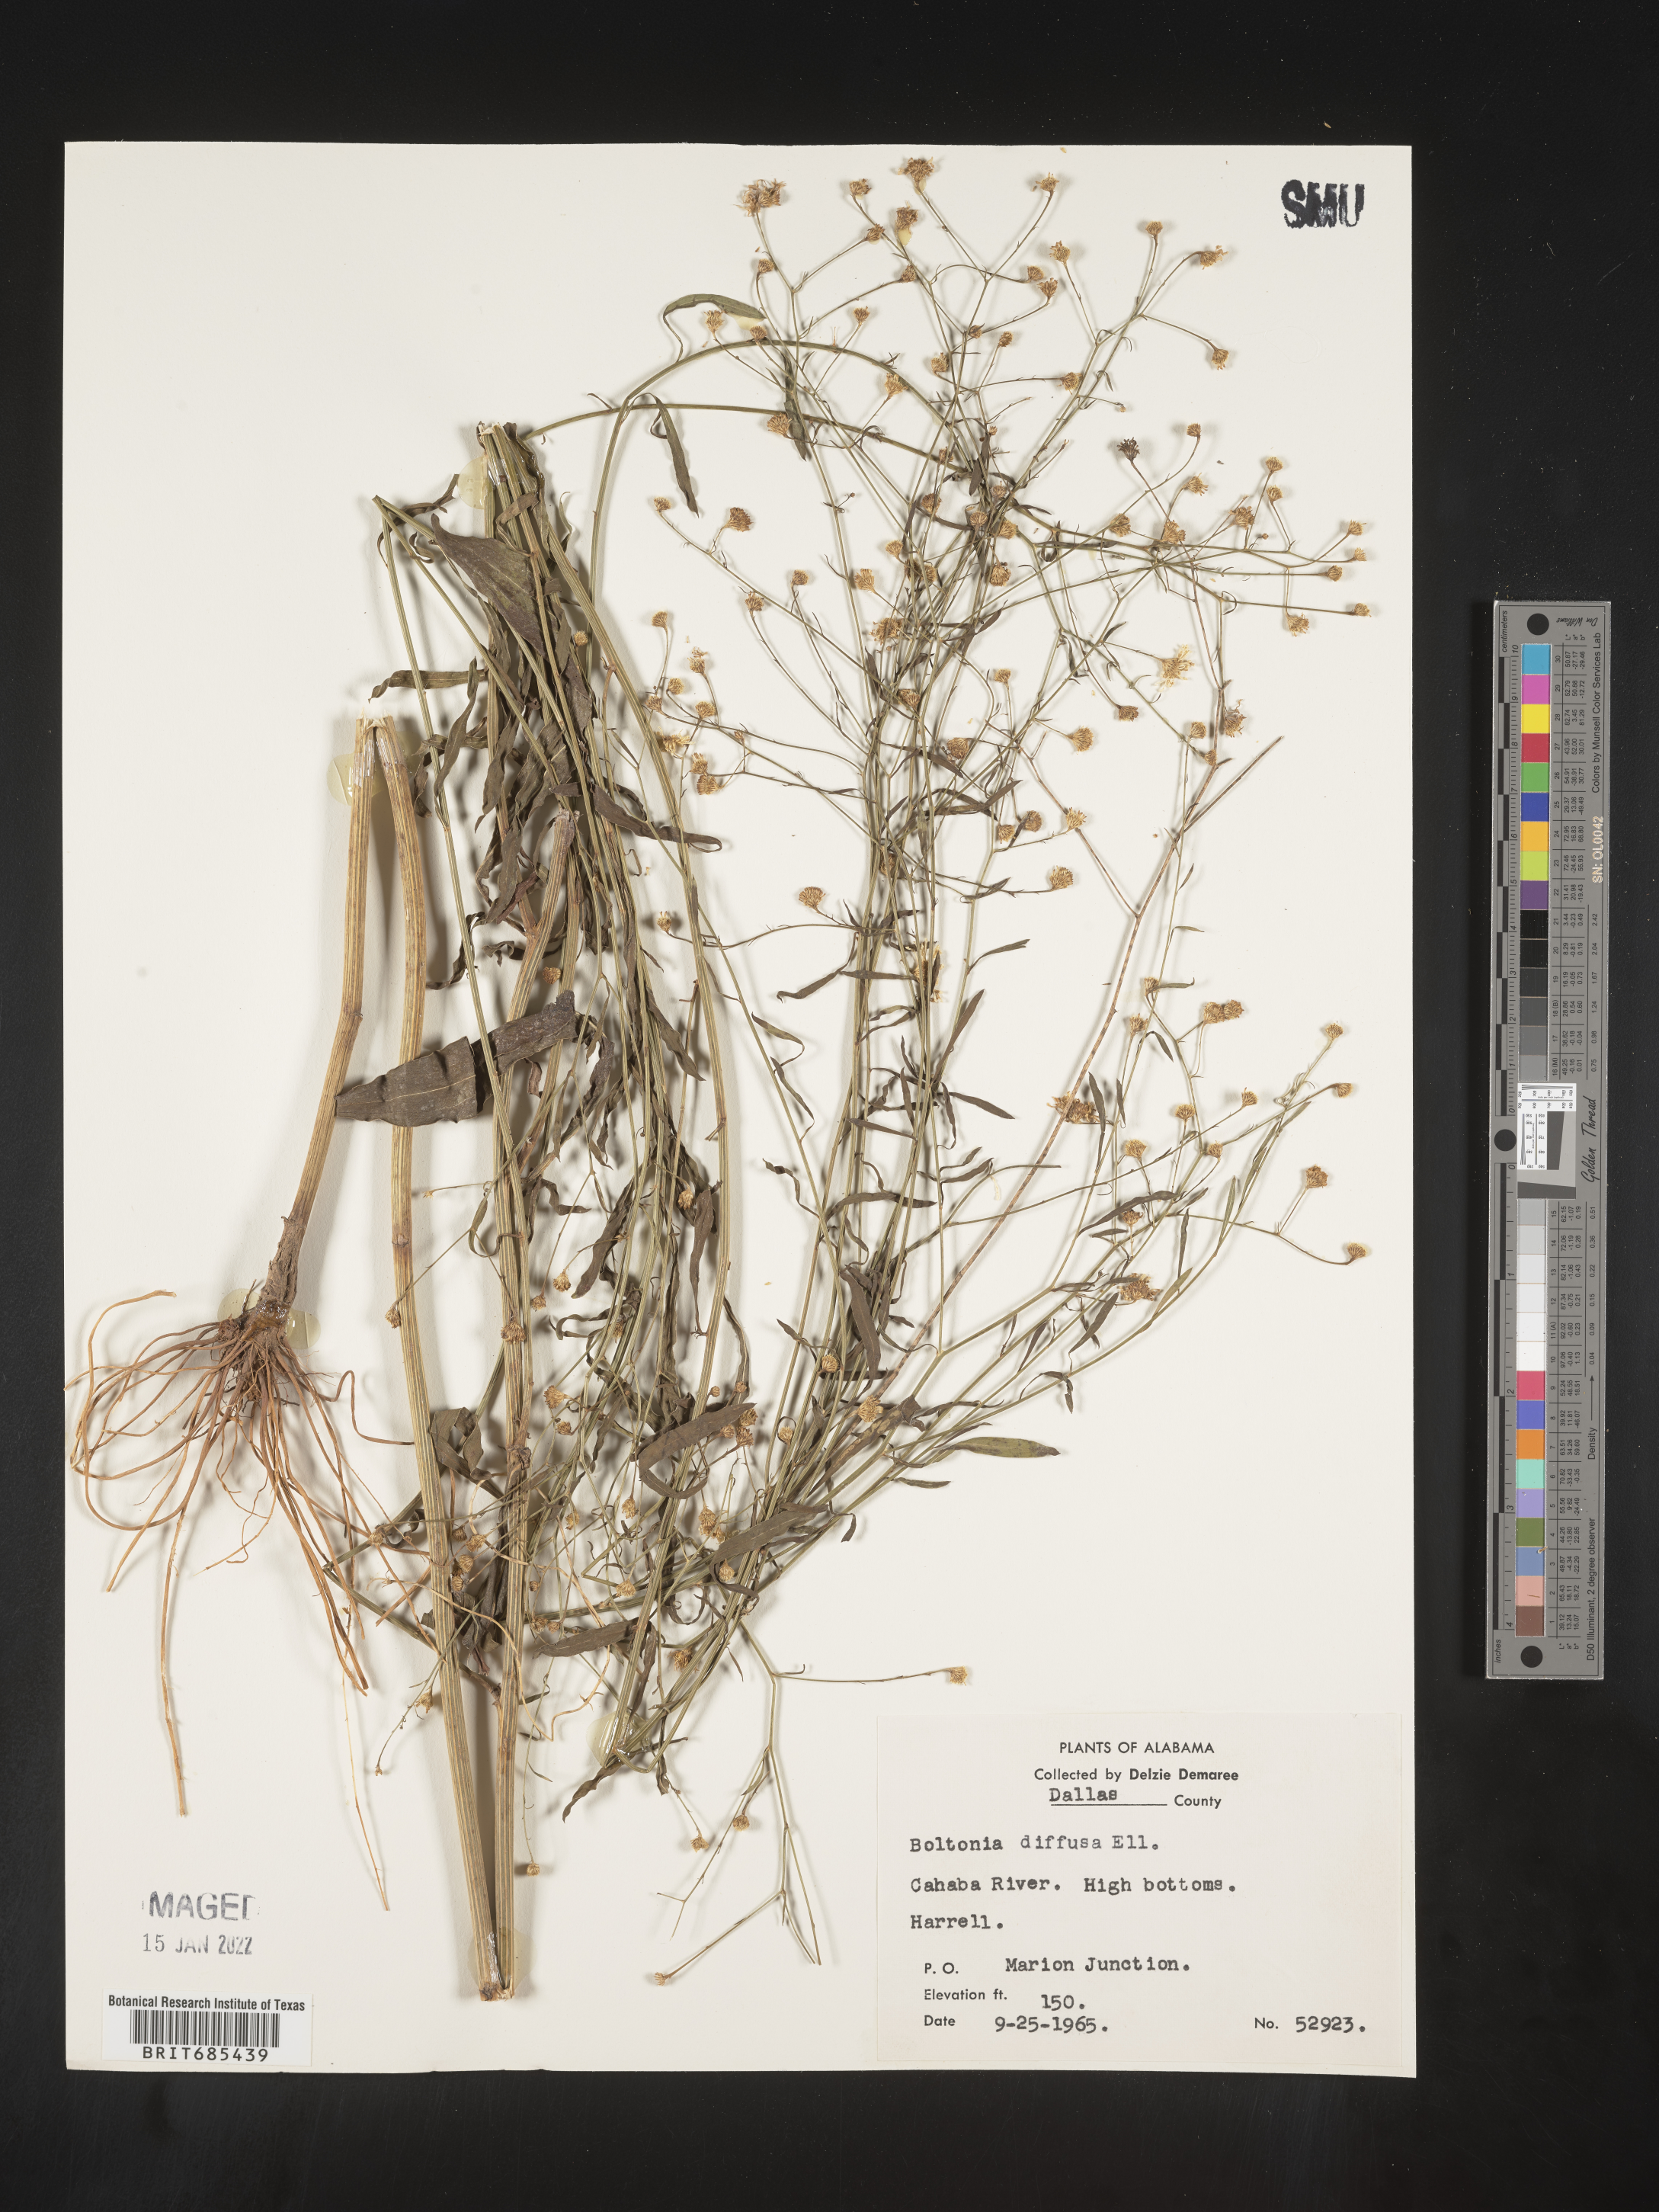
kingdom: Plantae
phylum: Tracheophyta
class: Magnoliopsida
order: Asterales
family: Asteraceae
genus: Boltonia
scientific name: Boltonia diffusa
